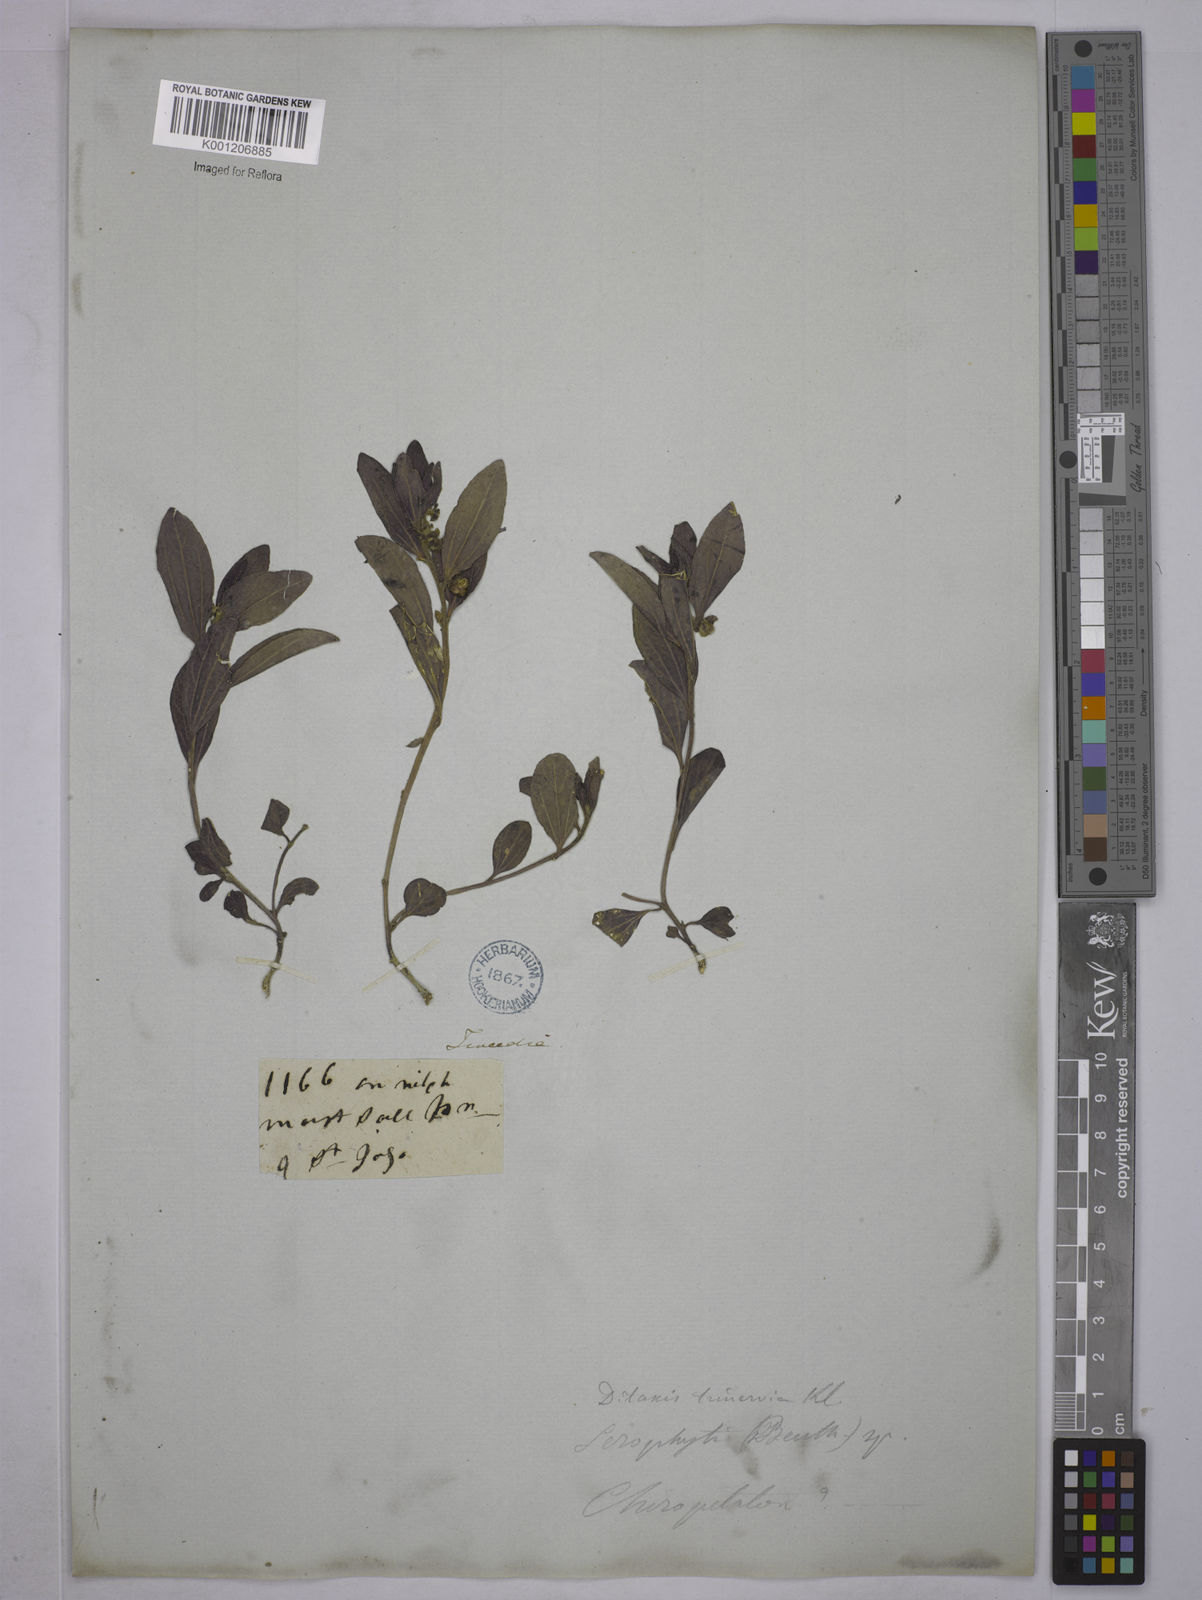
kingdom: Plantae
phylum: Tracheophyta
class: Magnoliopsida
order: Malpighiales
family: Euphorbiaceae
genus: Ditaxis
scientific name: Ditaxis montevidensis
